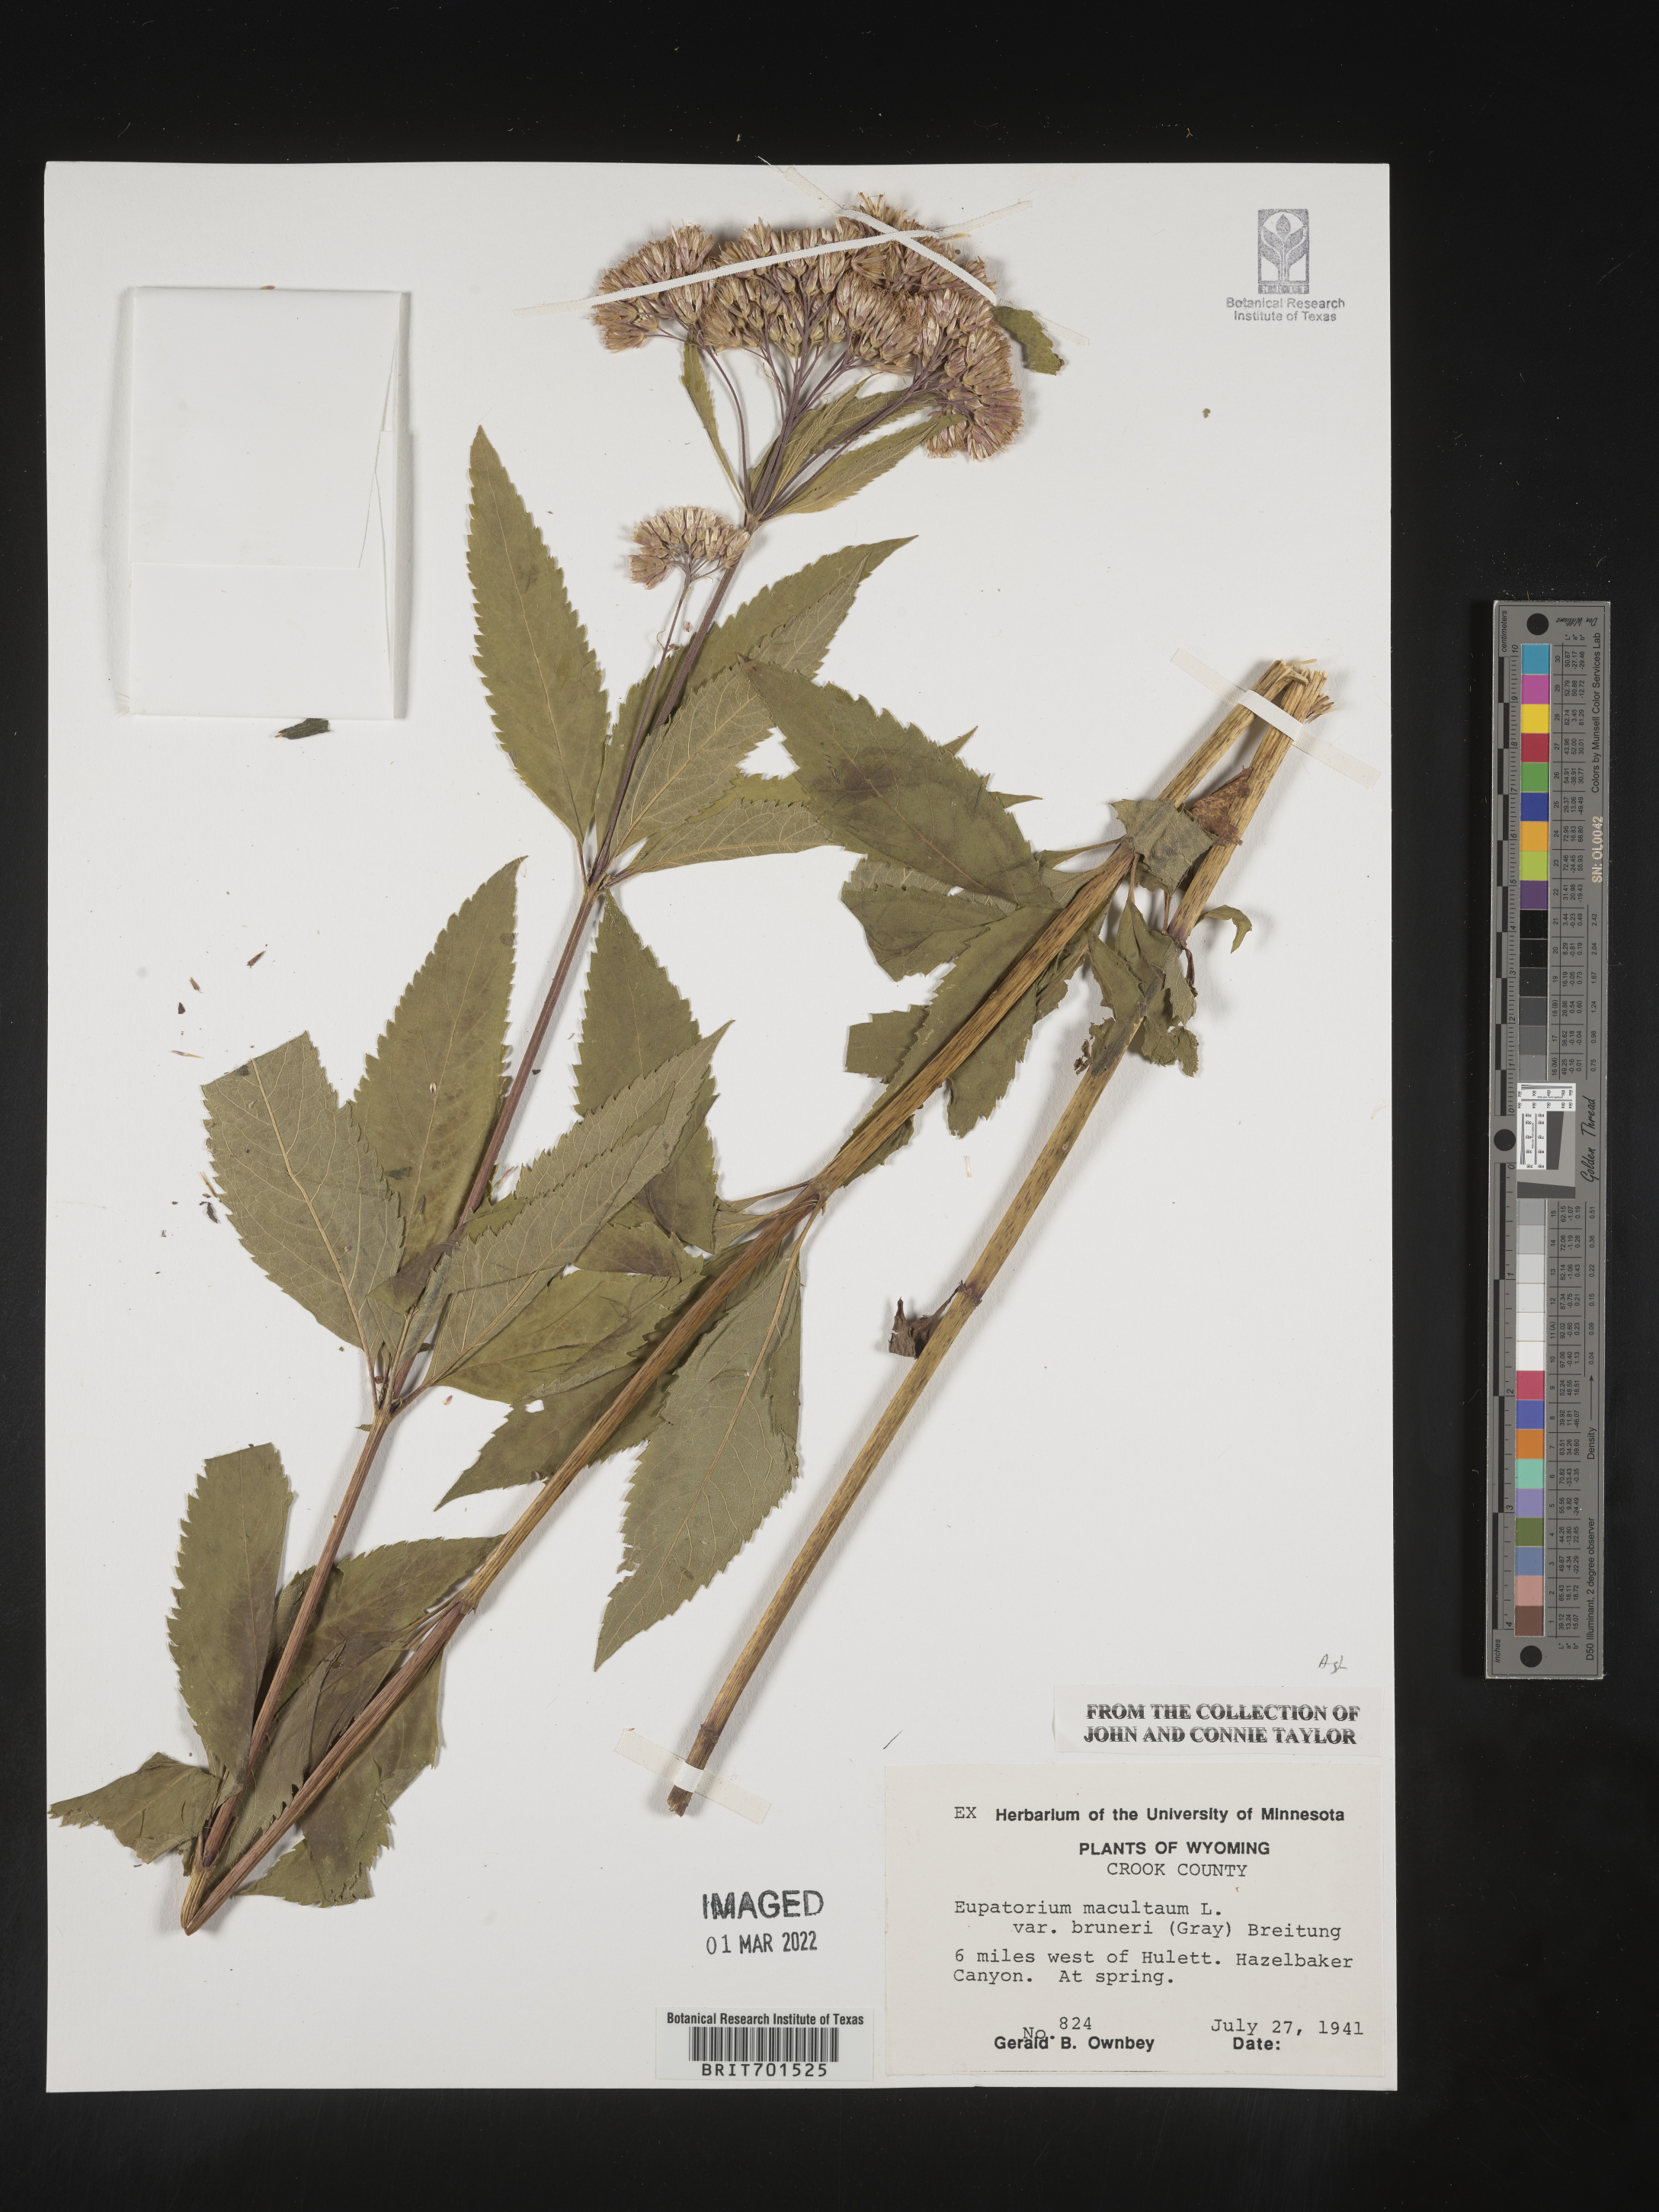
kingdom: Plantae
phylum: Tracheophyta
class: Magnoliopsida
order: Asterales
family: Asteraceae
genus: Eutrochium
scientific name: Eutrochium maculatum
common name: Spotted joe pye weed
